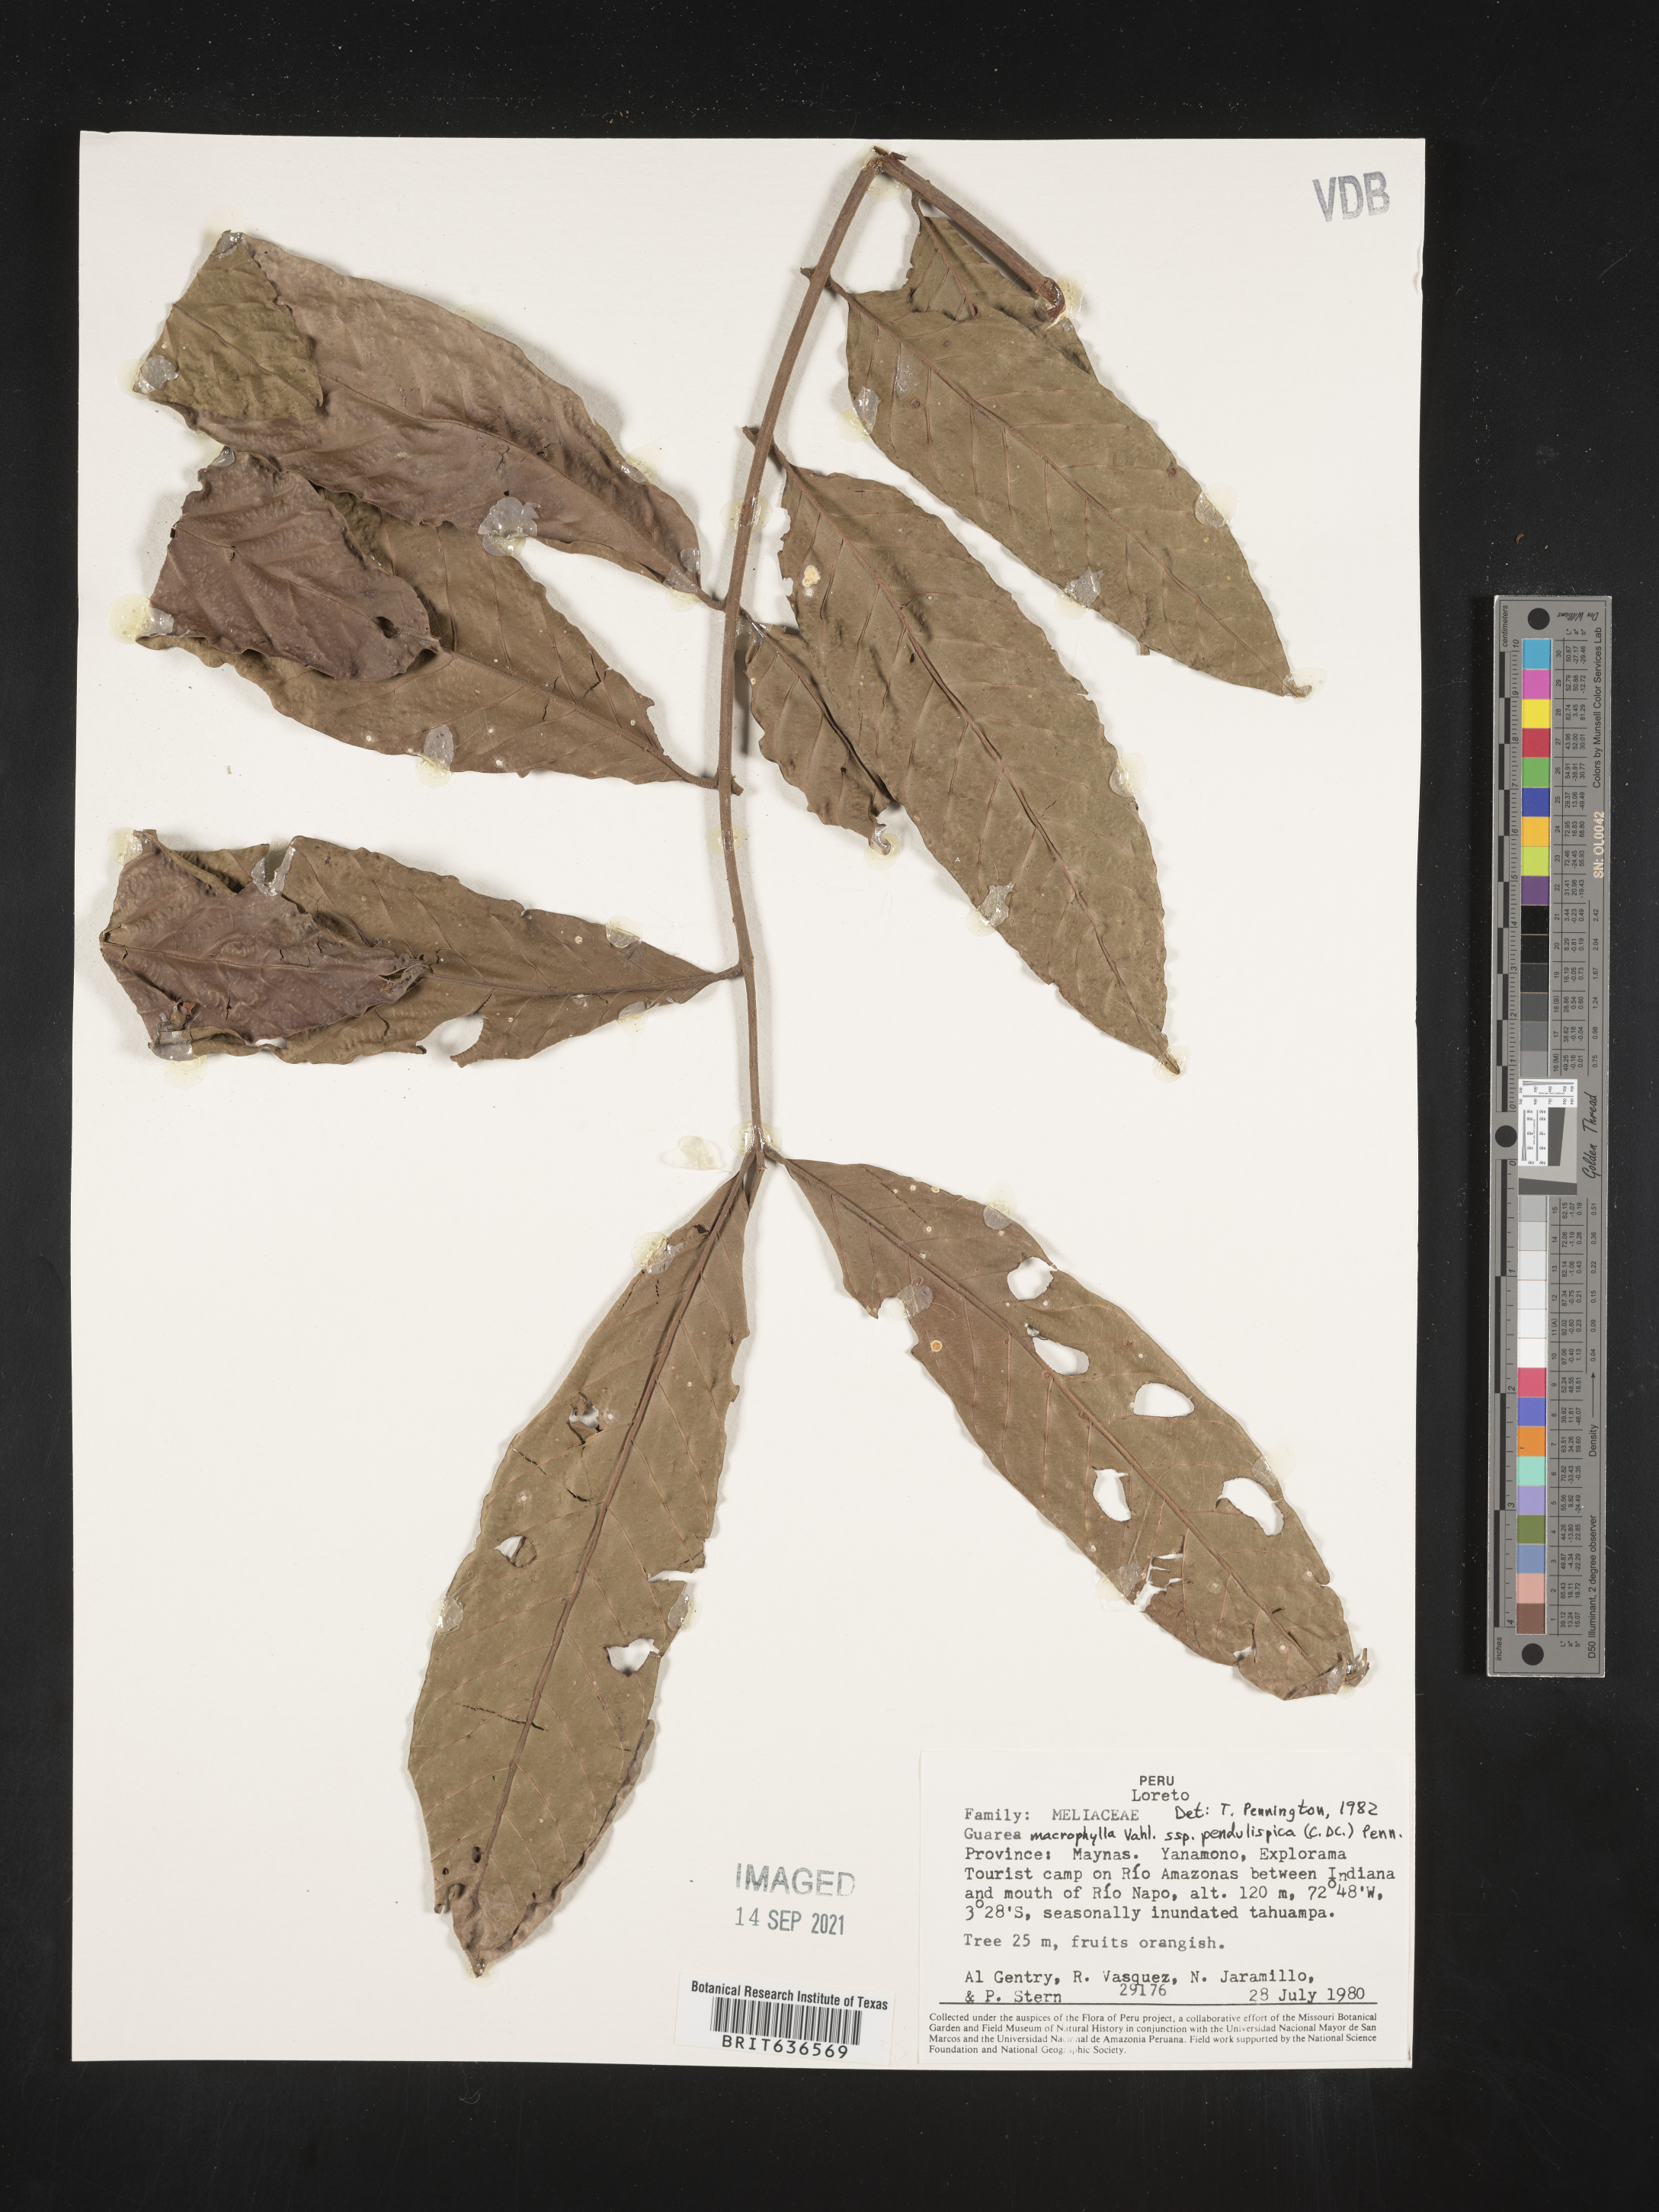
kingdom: Plantae
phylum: Tracheophyta
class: Magnoliopsida
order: Sapindales
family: Meliaceae
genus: Guarea
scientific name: Guarea
